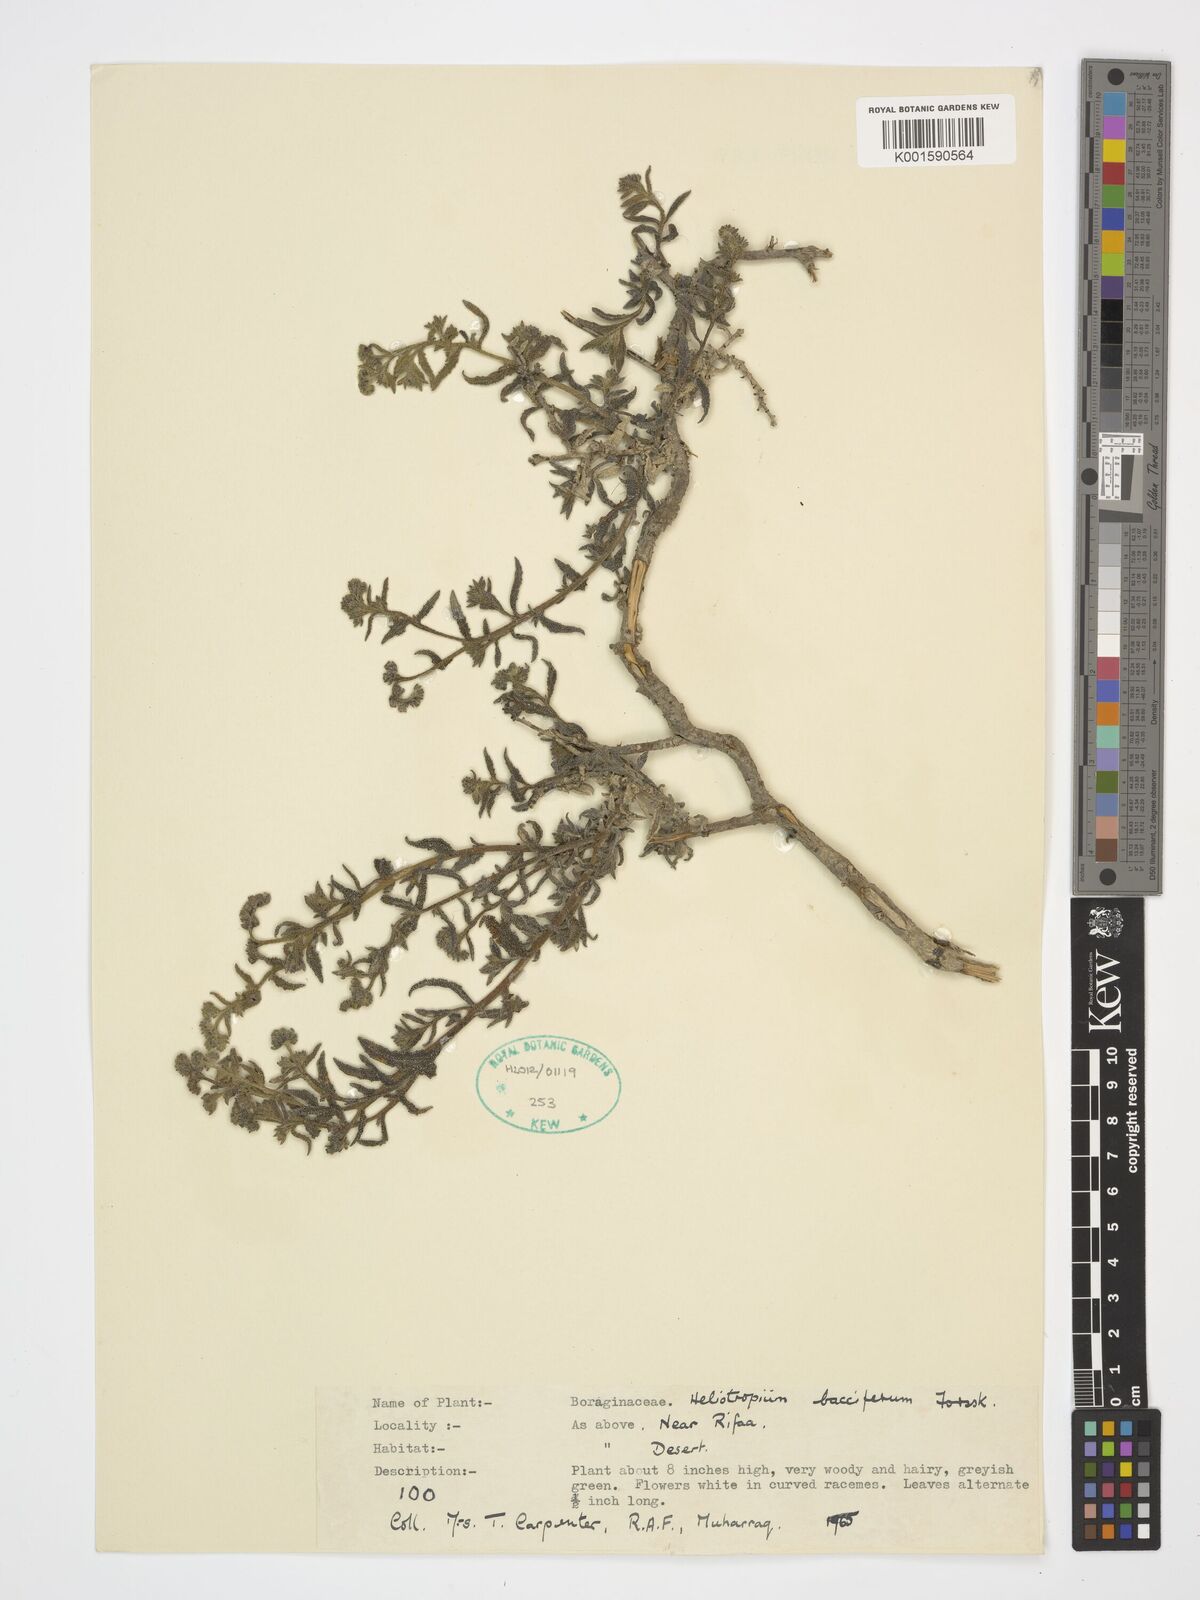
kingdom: Plantae
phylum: Tracheophyta
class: Magnoliopsida
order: Boraginales
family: Heliotropiaceae
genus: Heliotropium
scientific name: Heliotropium bacciferum
